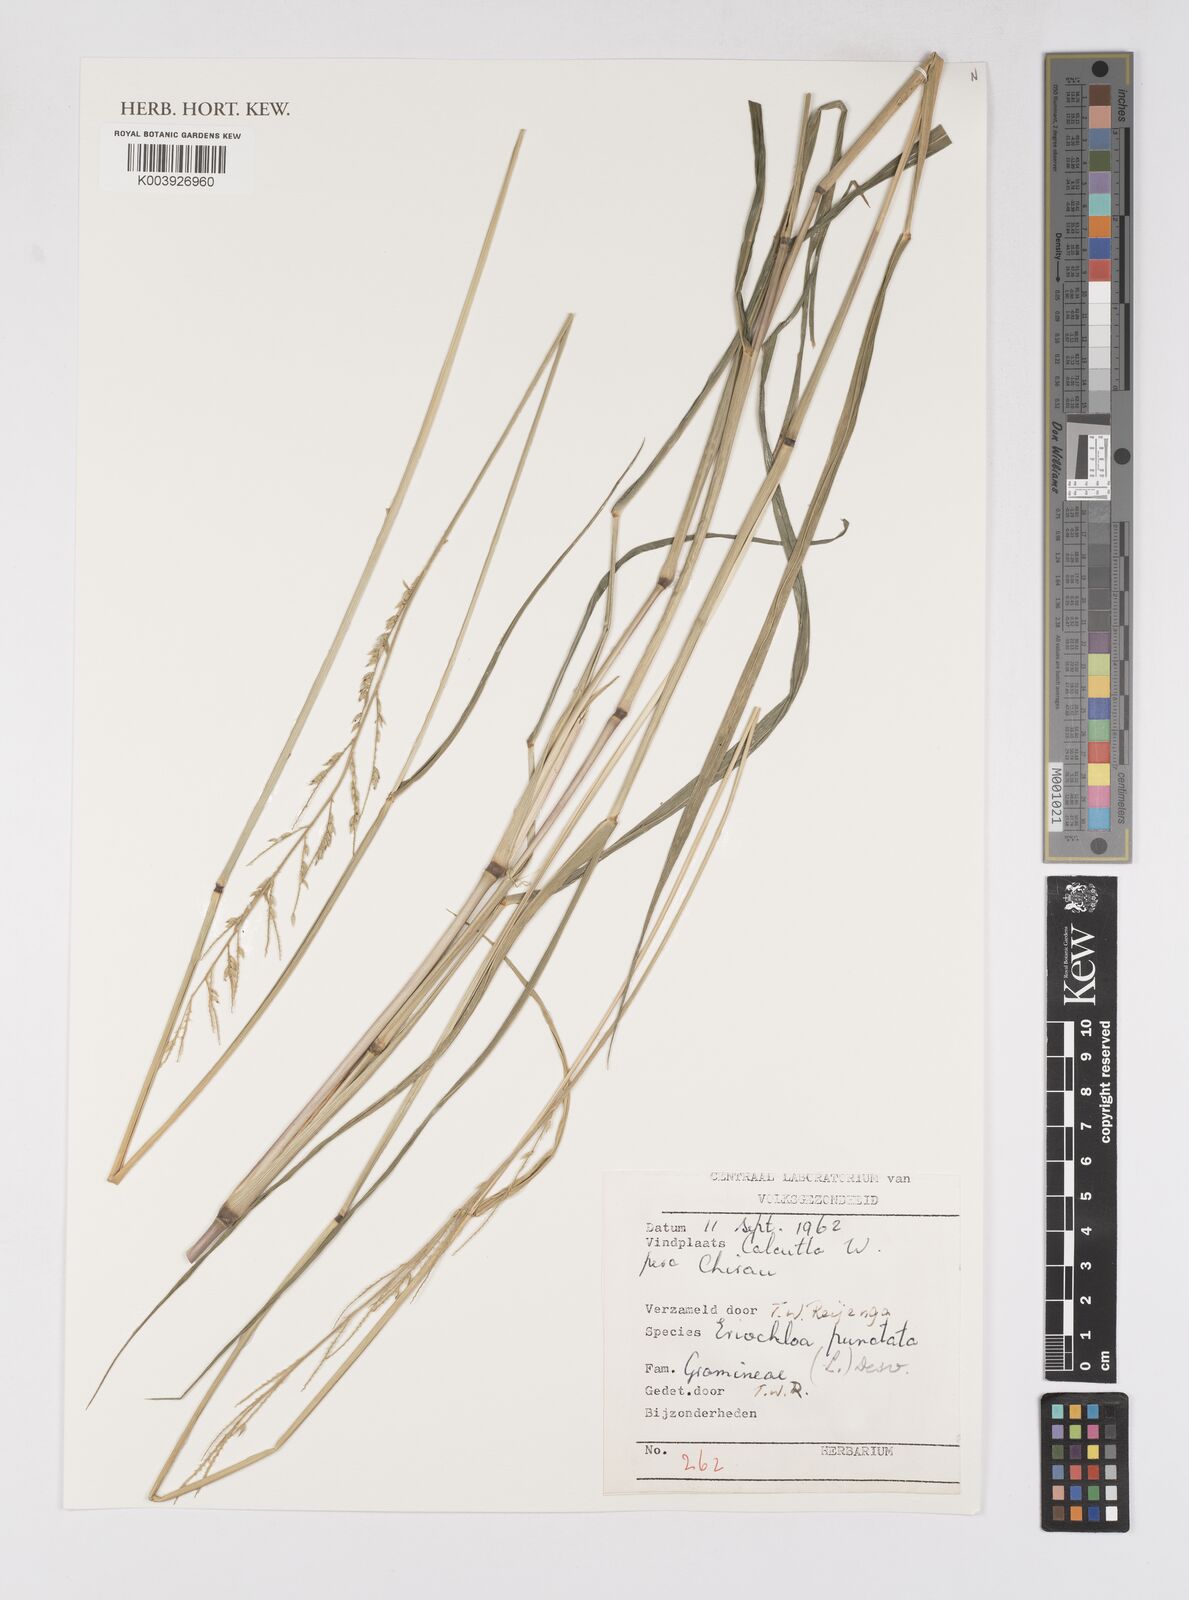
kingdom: Plantae
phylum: Tracheophyta
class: Liliopsida
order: Poales
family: Poaceae
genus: Eriochloa
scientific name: Eriochloa punctata
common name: Louisiana cupgrass
